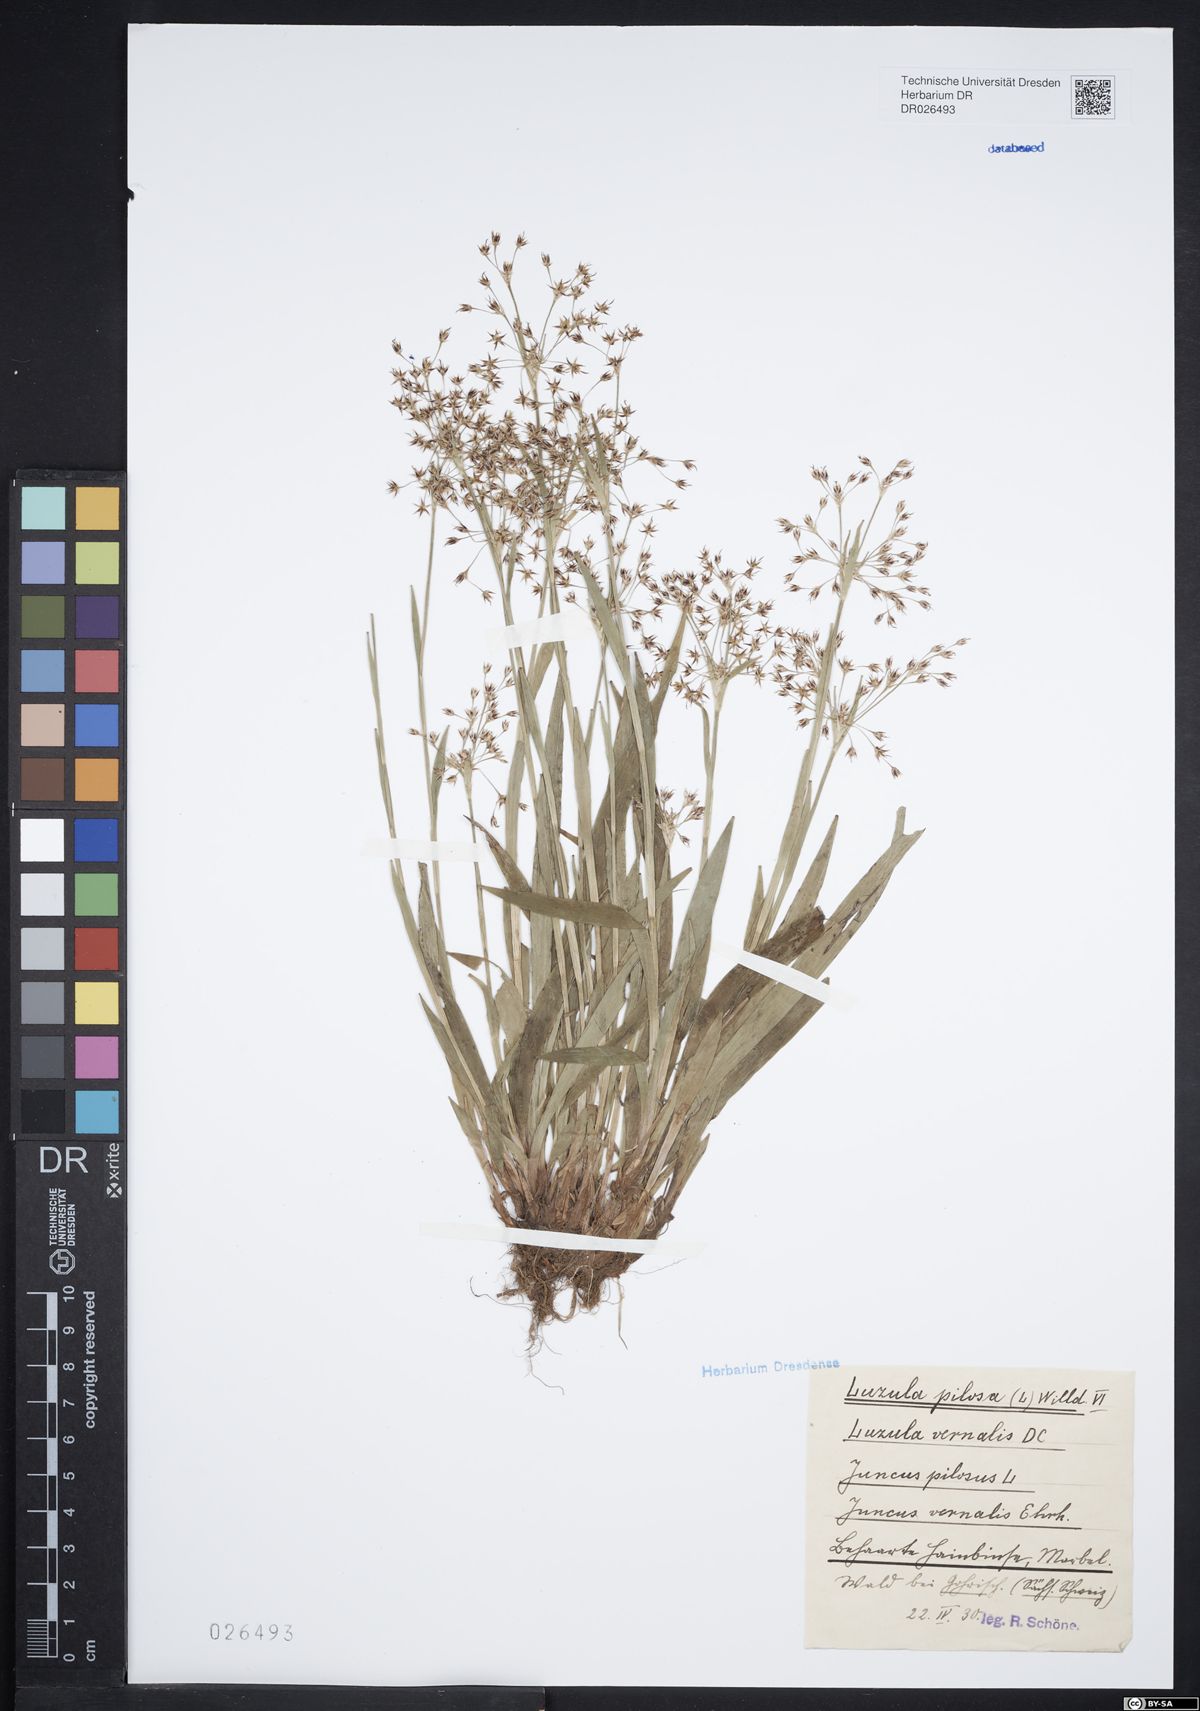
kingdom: Plantae
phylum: Tracheophyta
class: Liliopsida
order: Poales
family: Juncaceae
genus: Luzula
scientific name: Luzula pilosa
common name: Hairy wood-rush
